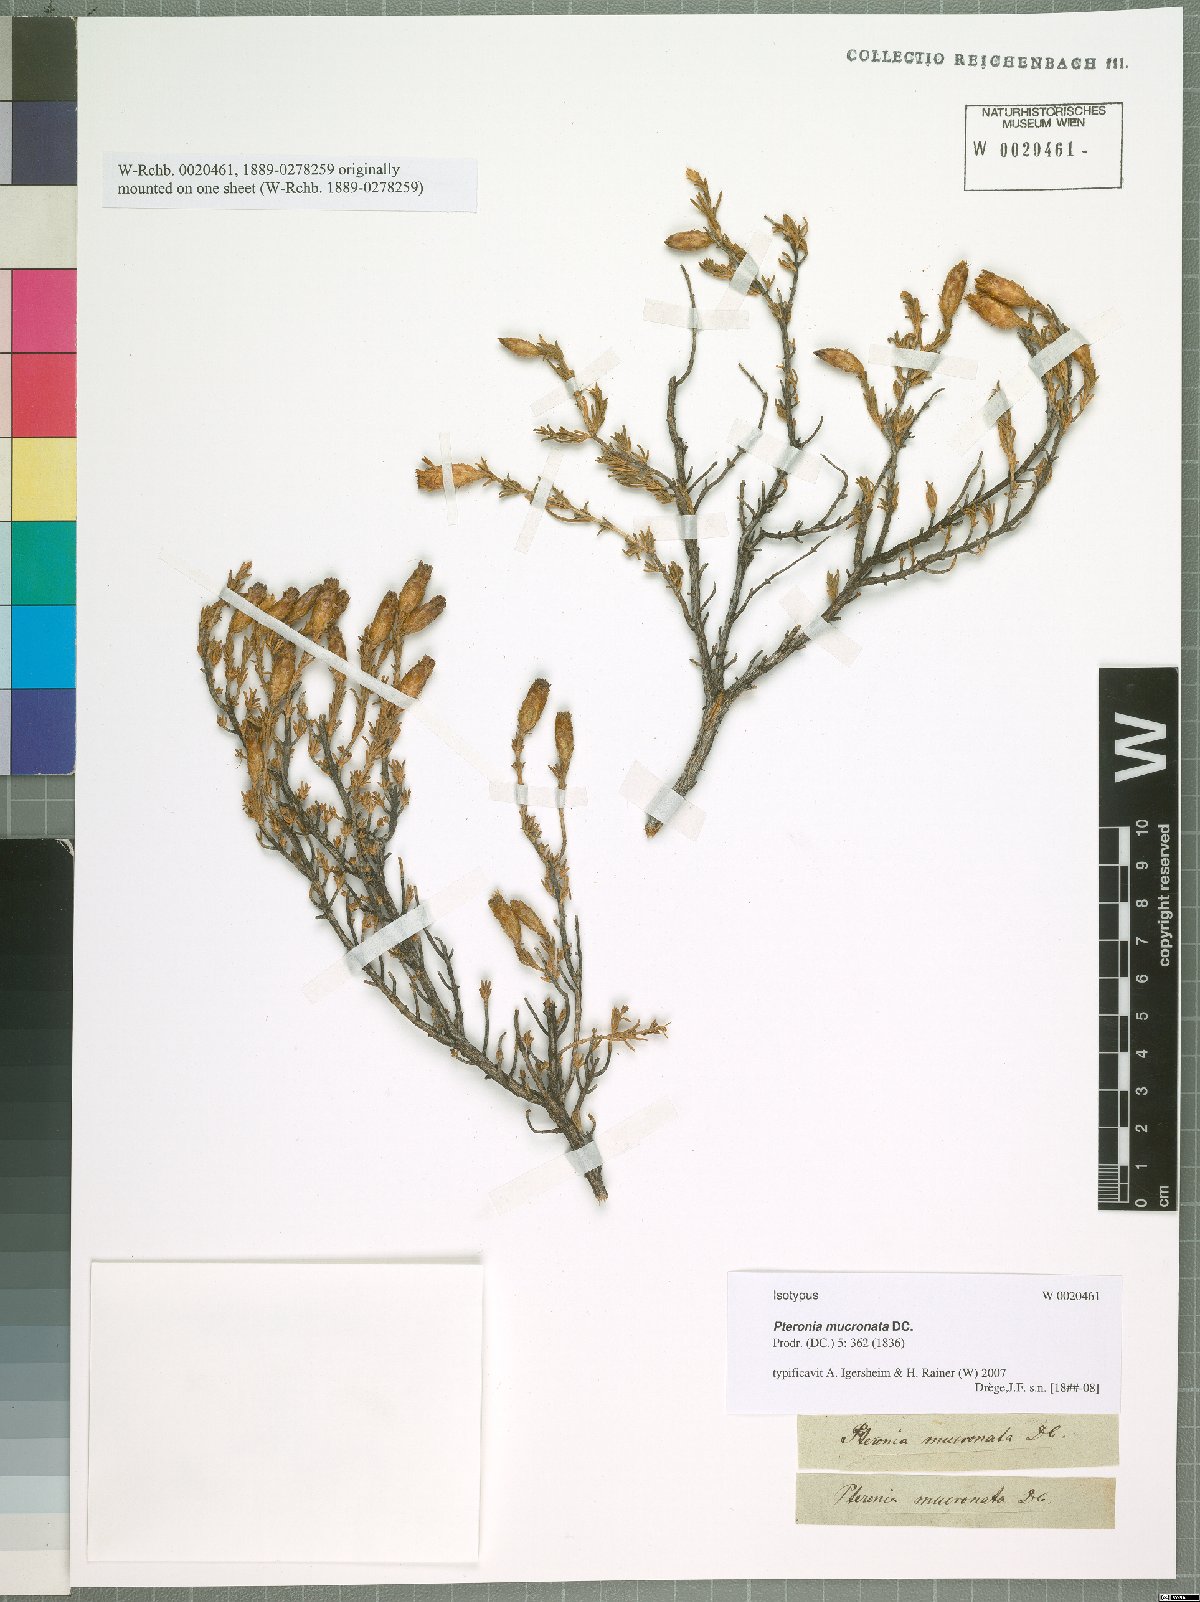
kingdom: Plantae
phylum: Tracheophyta
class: Magnoliopsida
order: Asterales
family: Asteraceae
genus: Pteronia
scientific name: Pteronia mucronata
